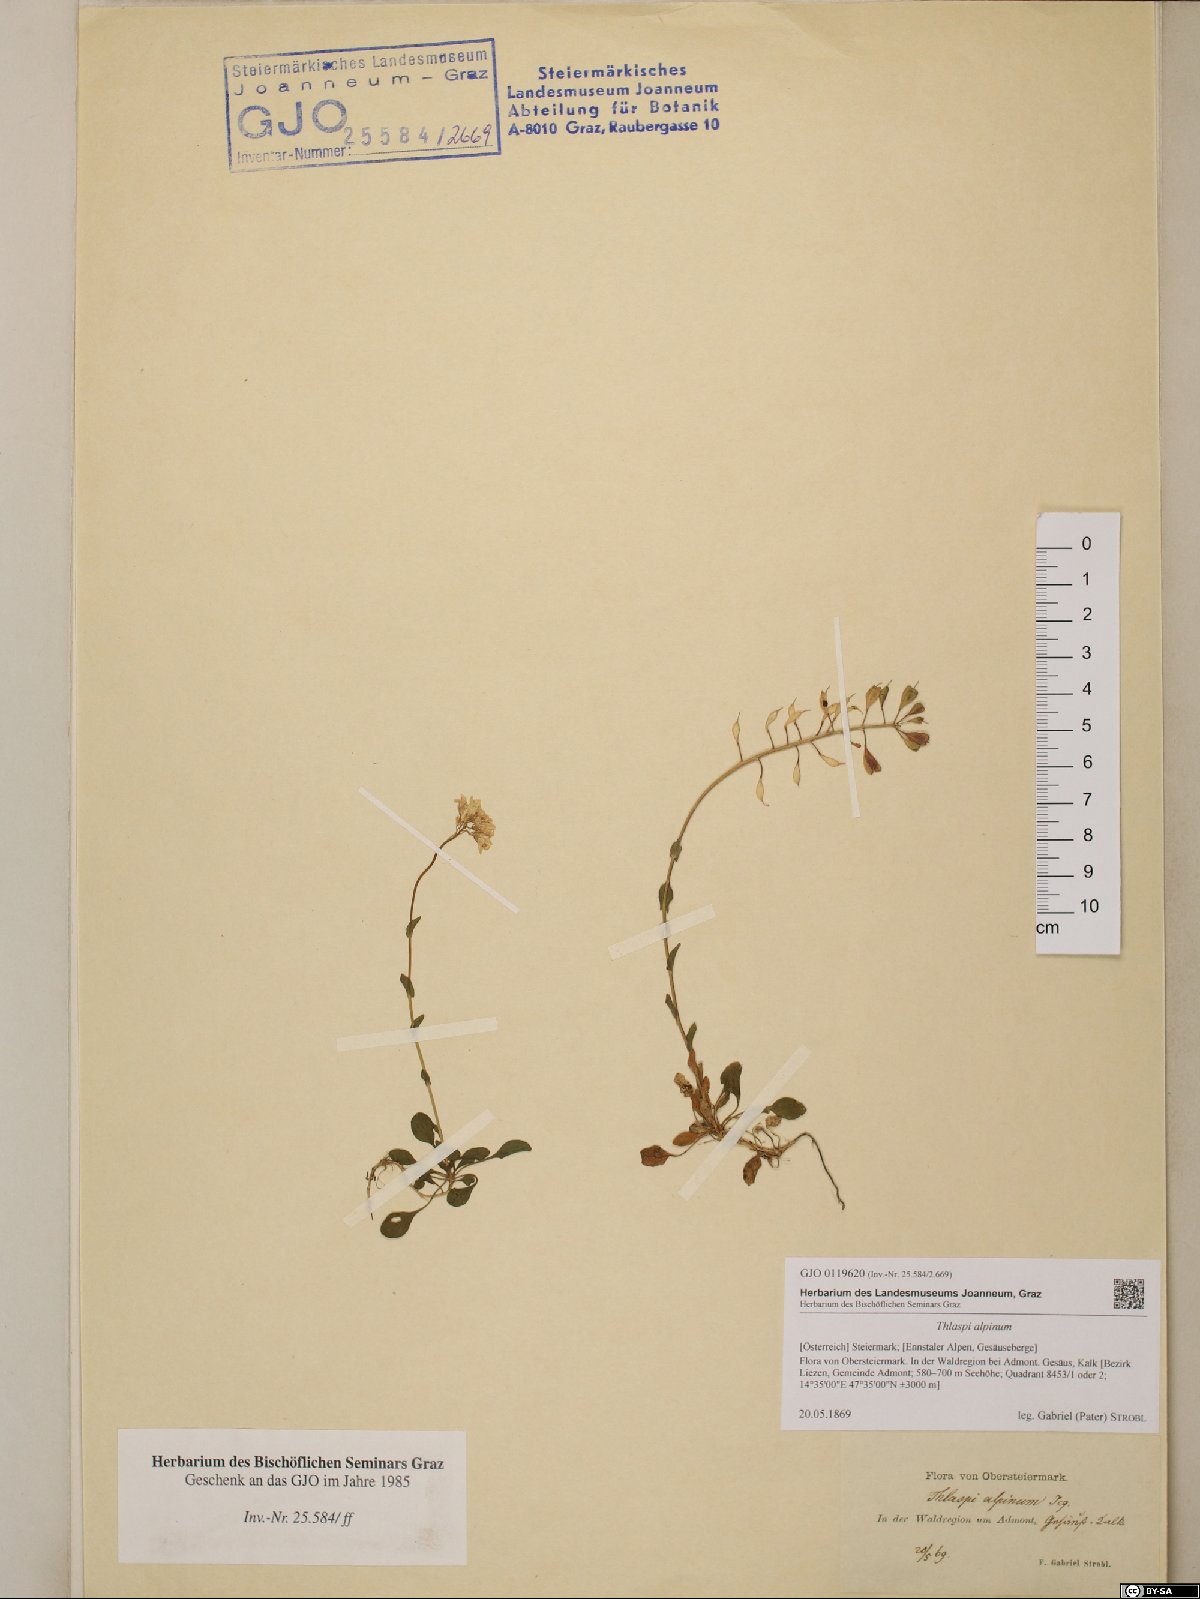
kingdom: Plantae
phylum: Tracheophyta
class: Magnoliopsida
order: Brassicales
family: Brassicaceae
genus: Noccaea
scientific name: Noccaea alpestris
